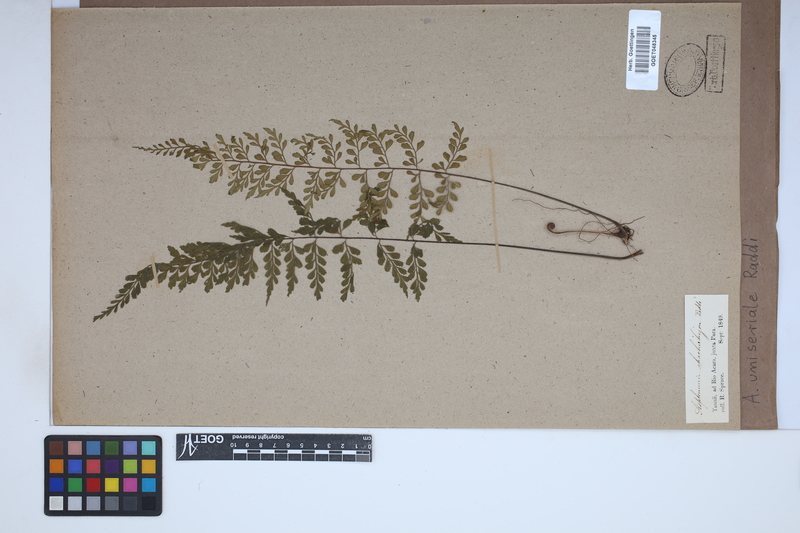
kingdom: Plantae
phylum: Tracheophyta
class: Polypodiopsida
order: Polypodiales
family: Aspleniaceae
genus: Asplenium
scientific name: Asplenium uniseriale
